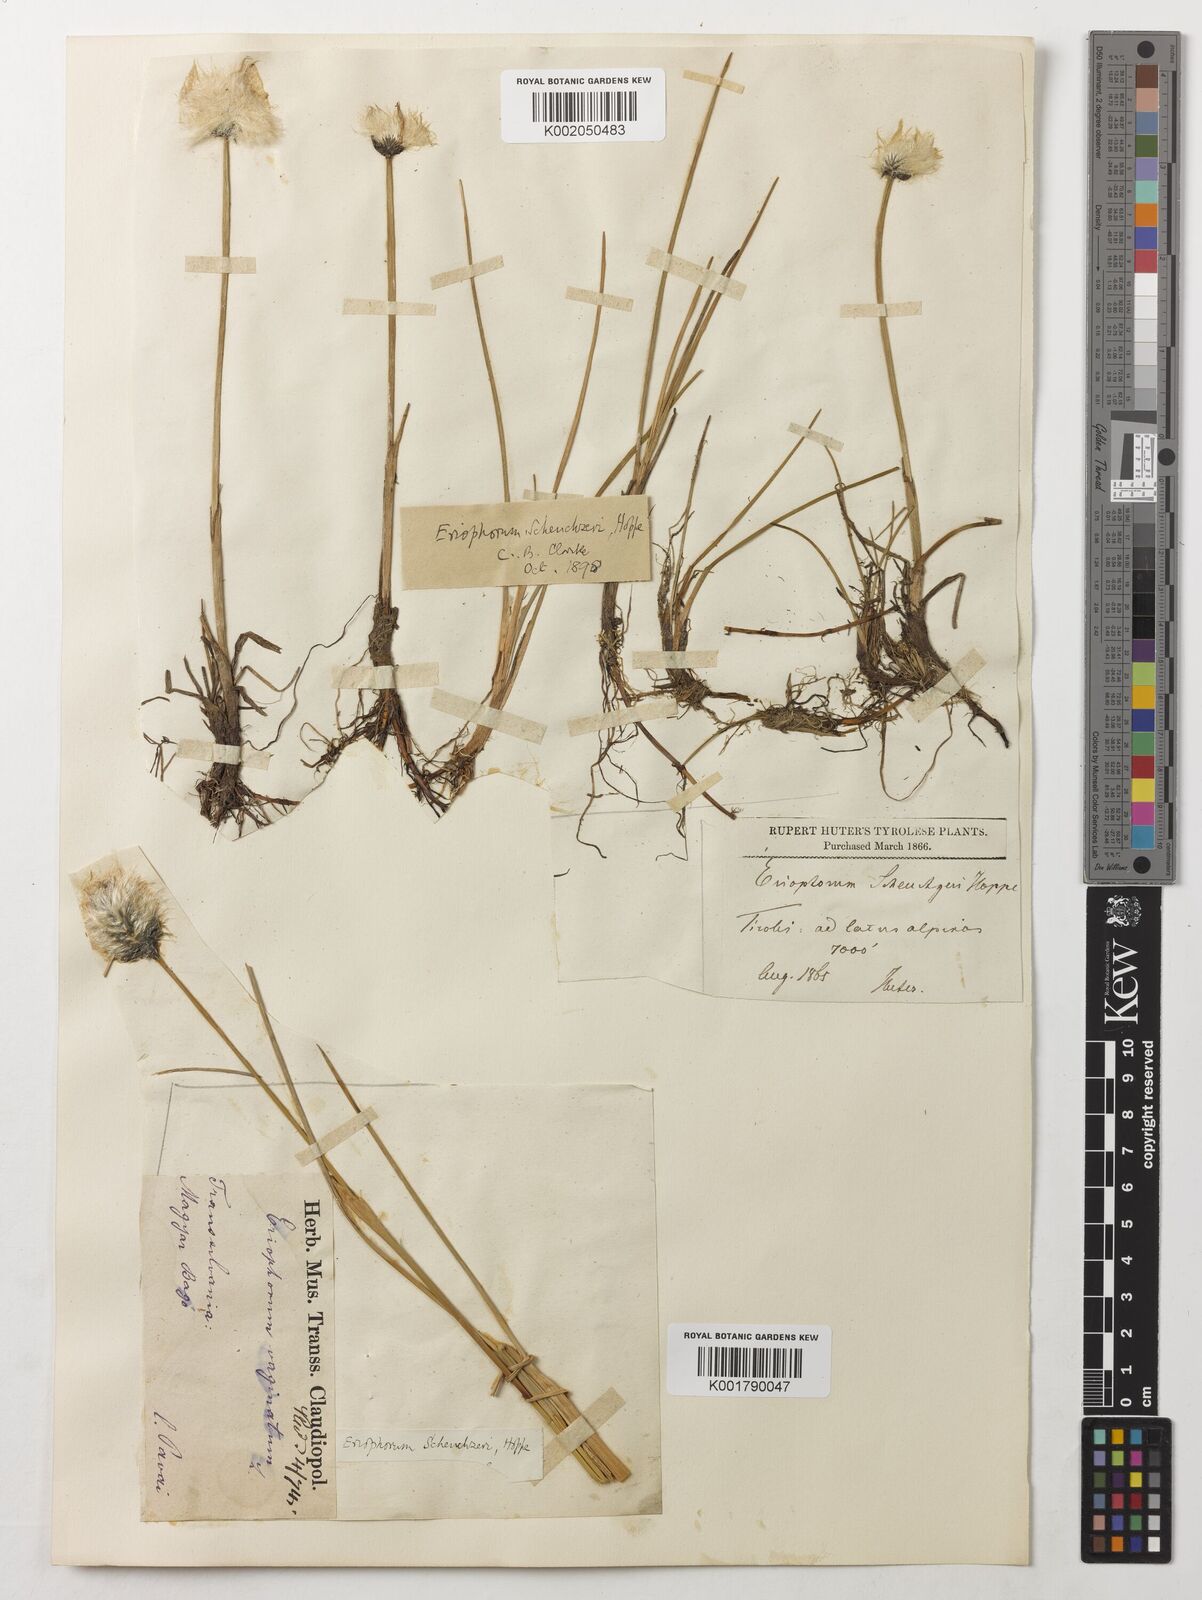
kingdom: Plantae
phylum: Tracheophyta
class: Liliopsida
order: Poales
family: Cyperaceae
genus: Eriophorum
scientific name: Eriophorum scheuchzeri
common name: Scheuchzer's cottongrass
